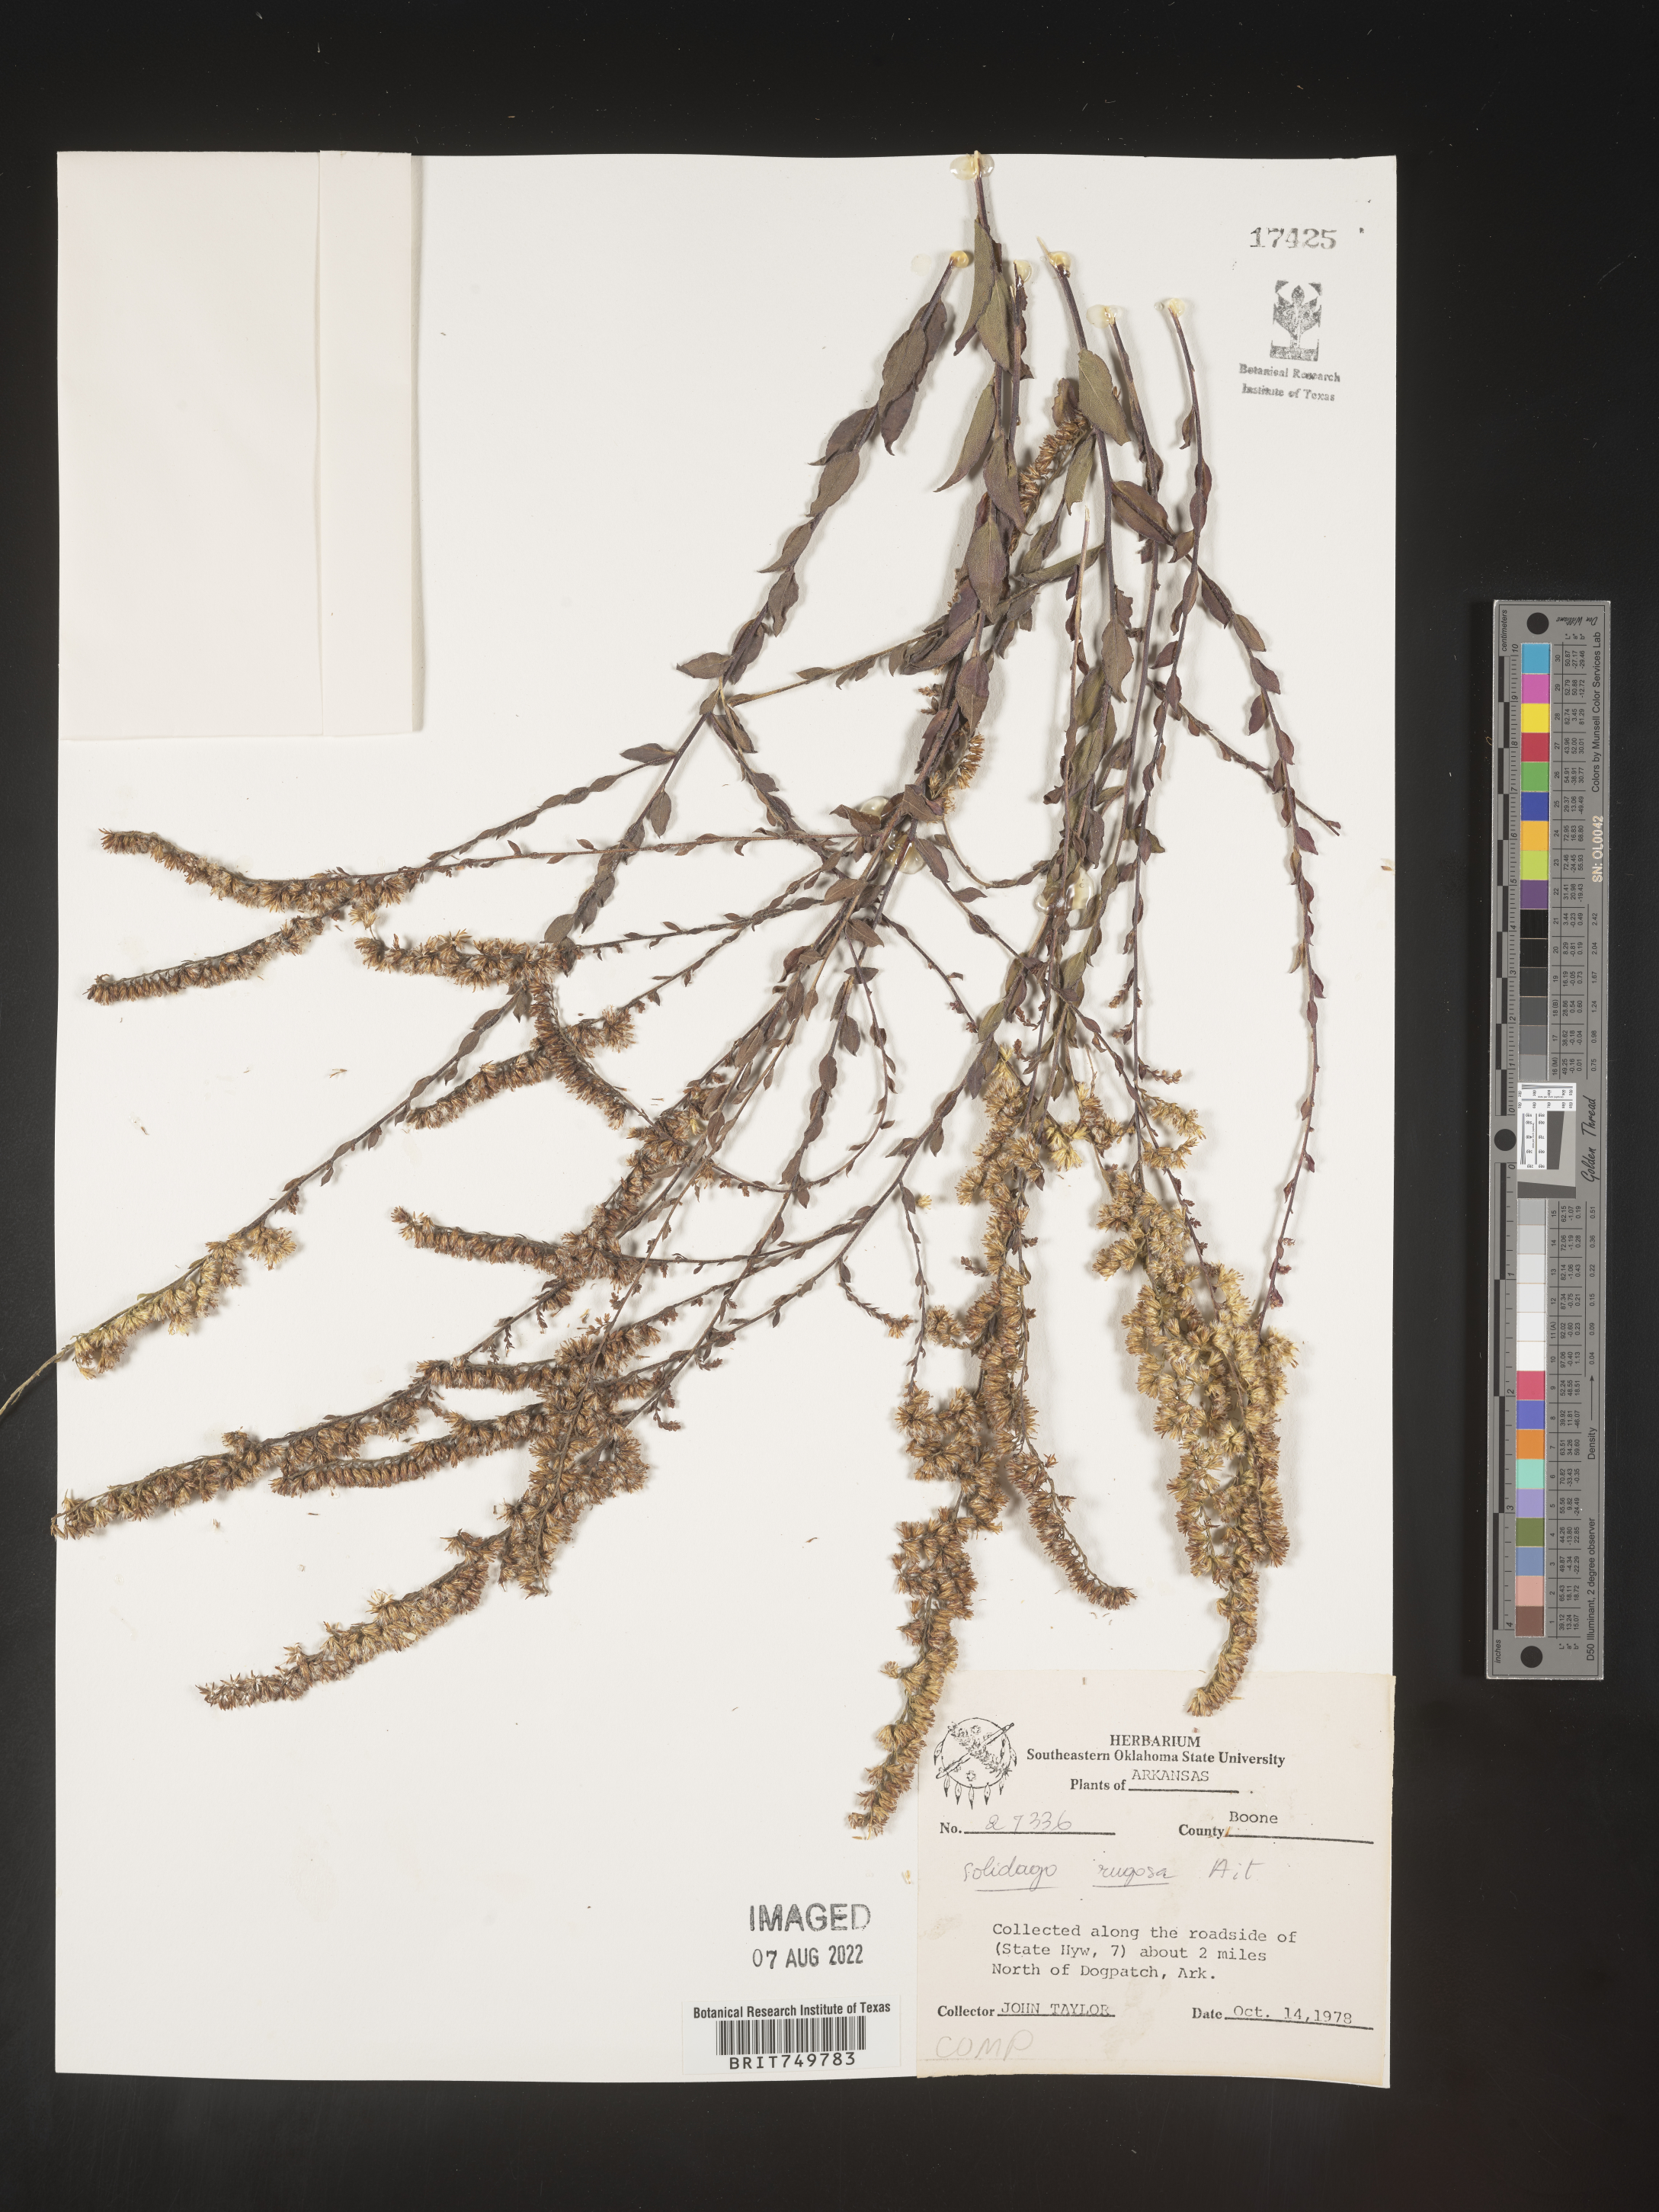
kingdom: Plantae
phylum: Tracheophyta
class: Magnoliopsida
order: Asterales
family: Asteraceae
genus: Solidago
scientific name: Solidago ulmifolia
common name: Elm-leaf goldenrod
